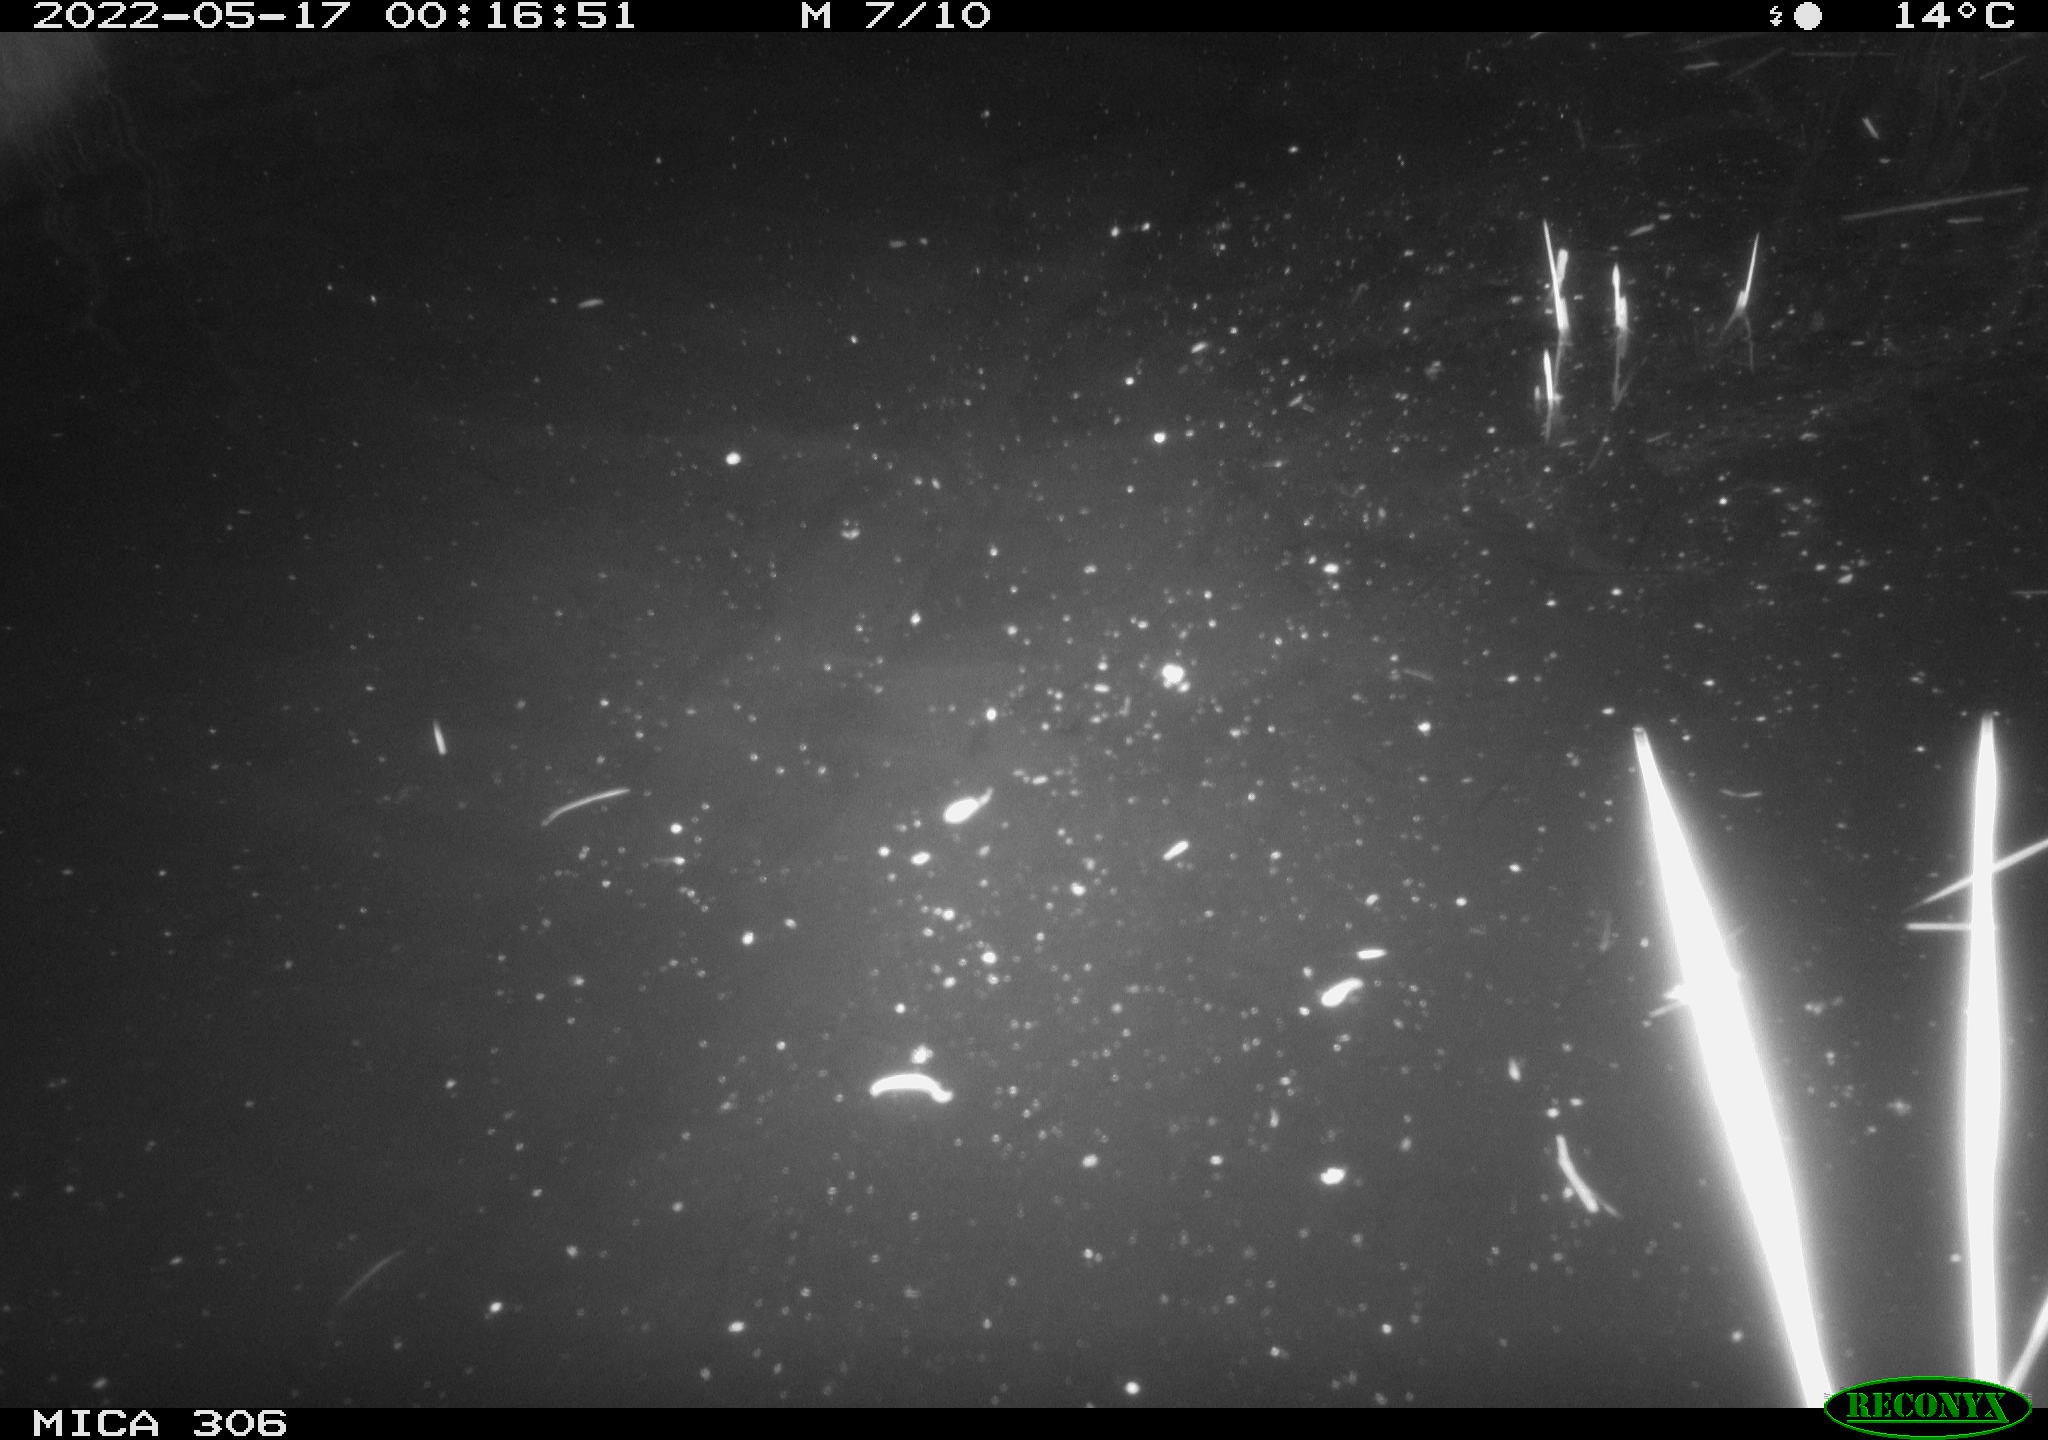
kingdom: Animalia
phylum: Chordata
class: Mammalia
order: Rodentia
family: Cricetidae
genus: Ondatra
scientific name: Ondatra zibethicus
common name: Muskrat
